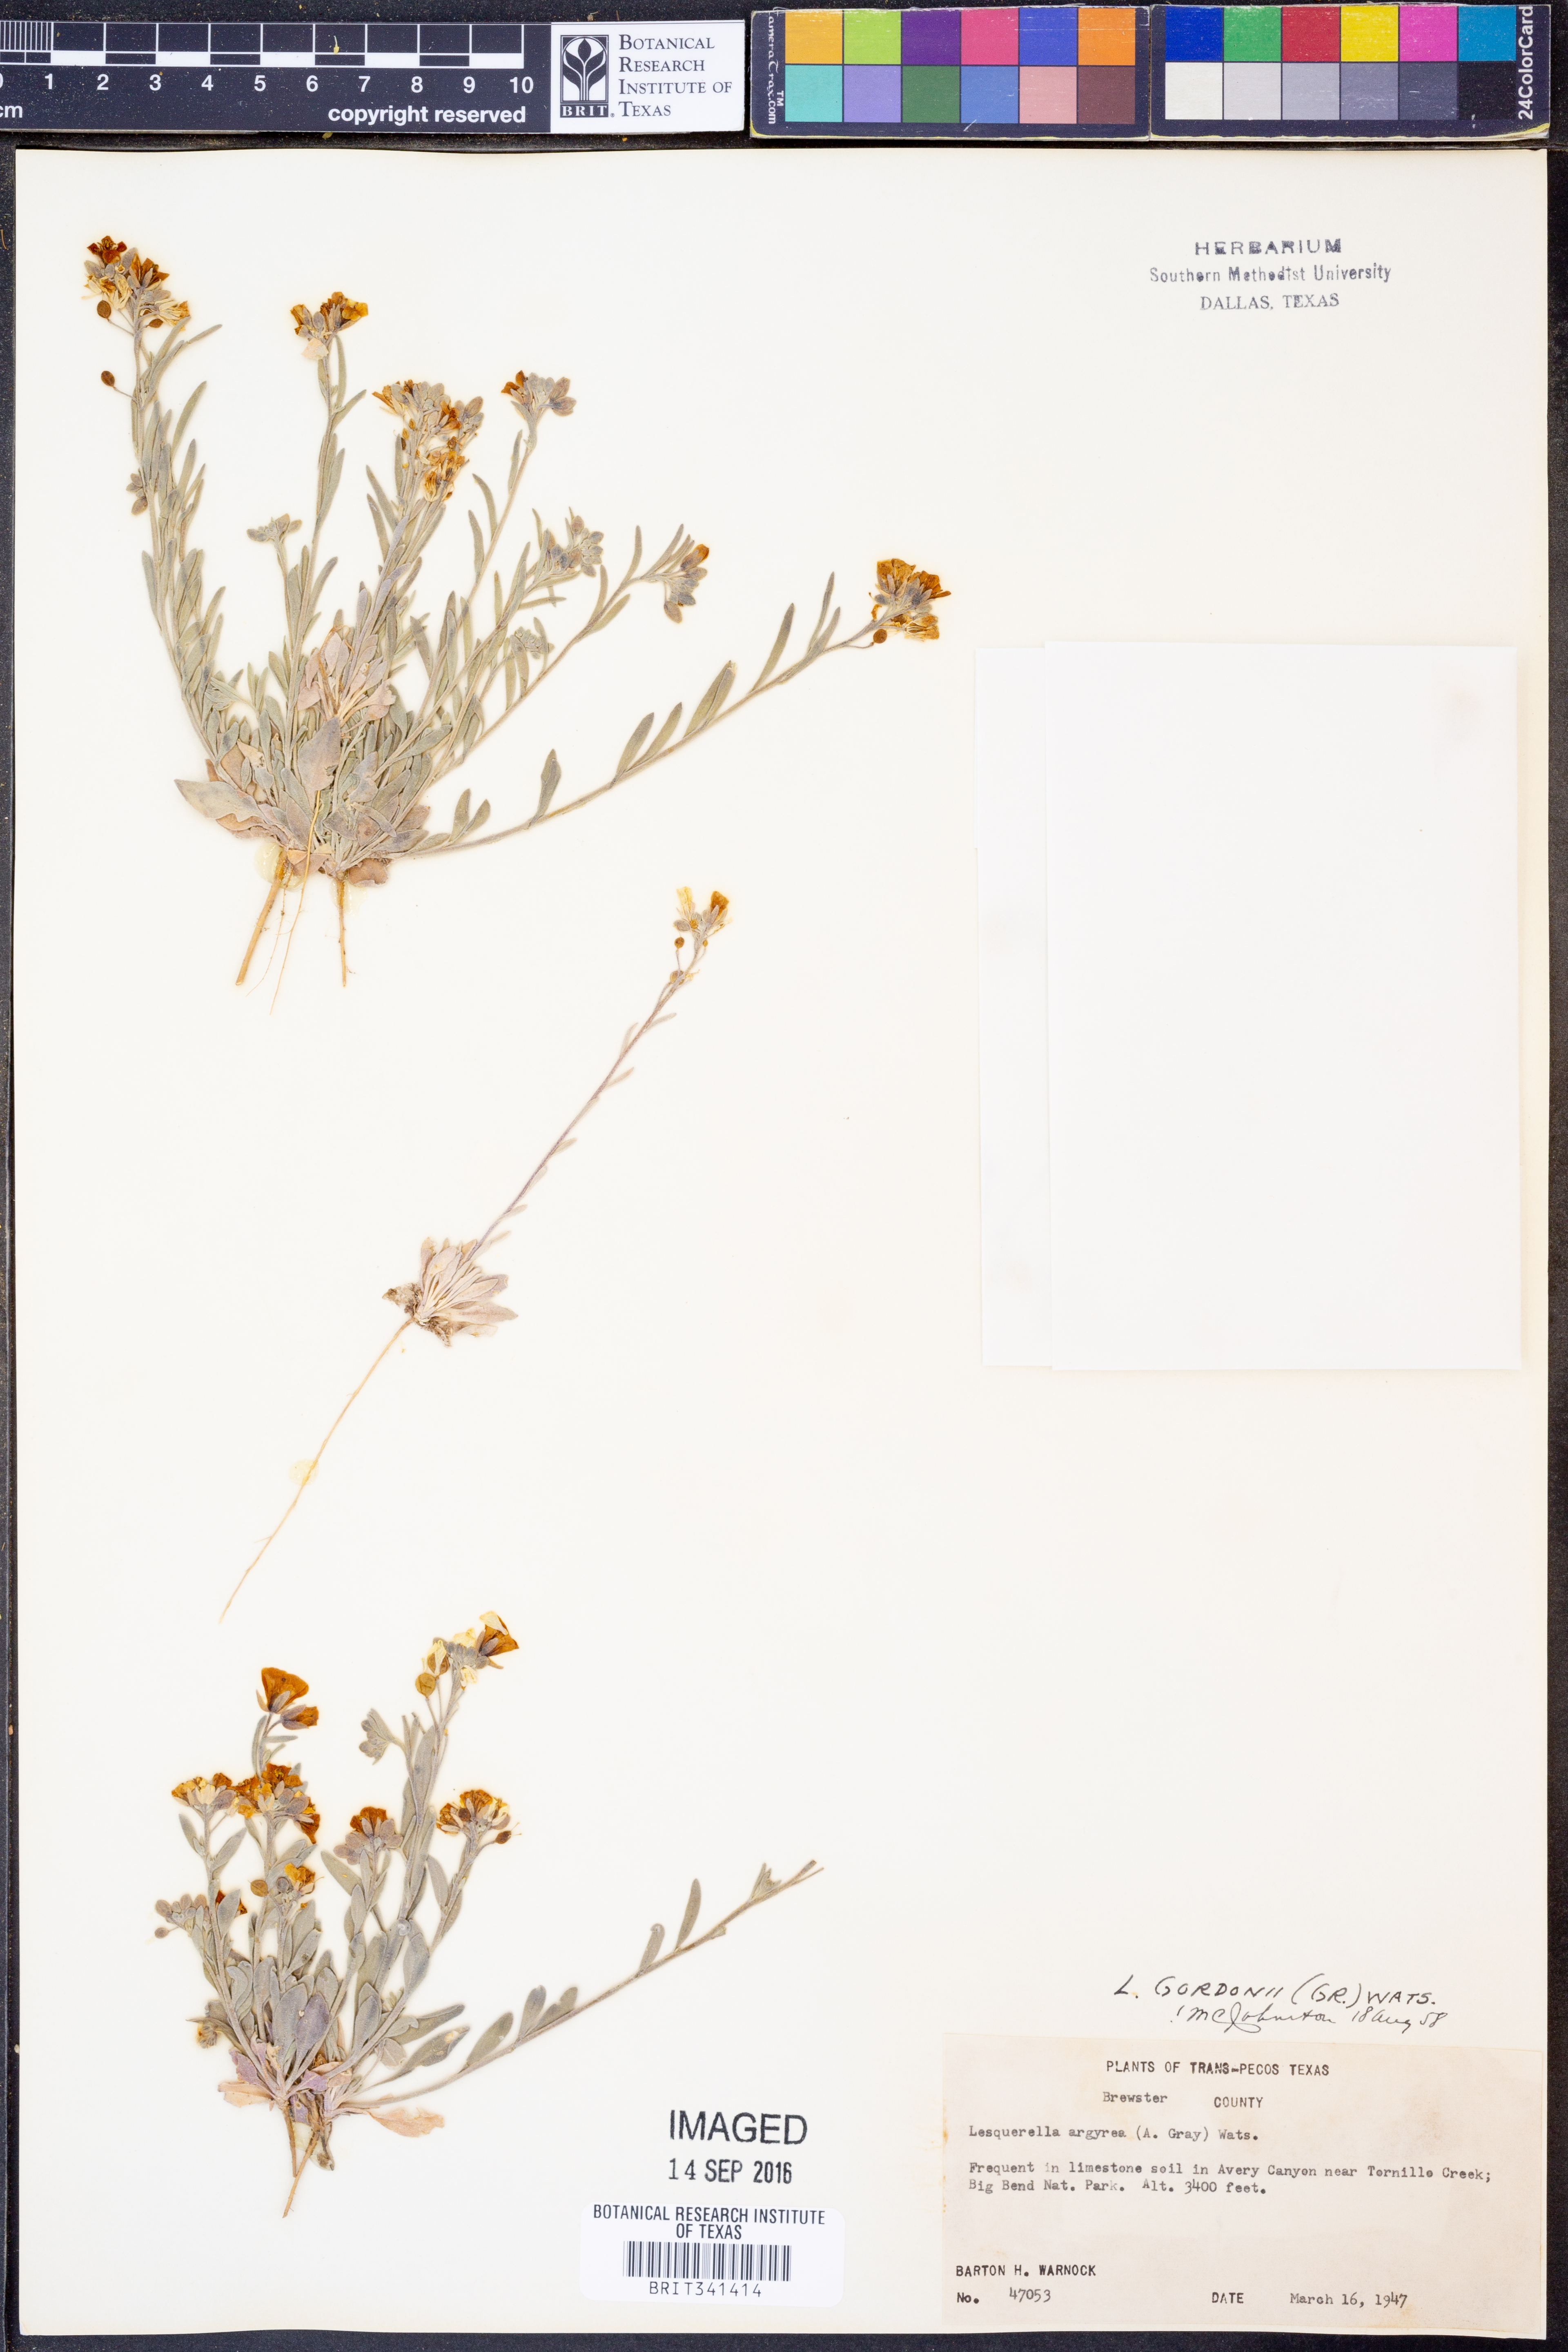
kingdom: Plantae
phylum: Tracheophyta
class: Magnoliopsida
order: Brassicales
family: Brassicaceae
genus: Physaria
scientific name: Physaria gordonii
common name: Gordon's bladderpod
